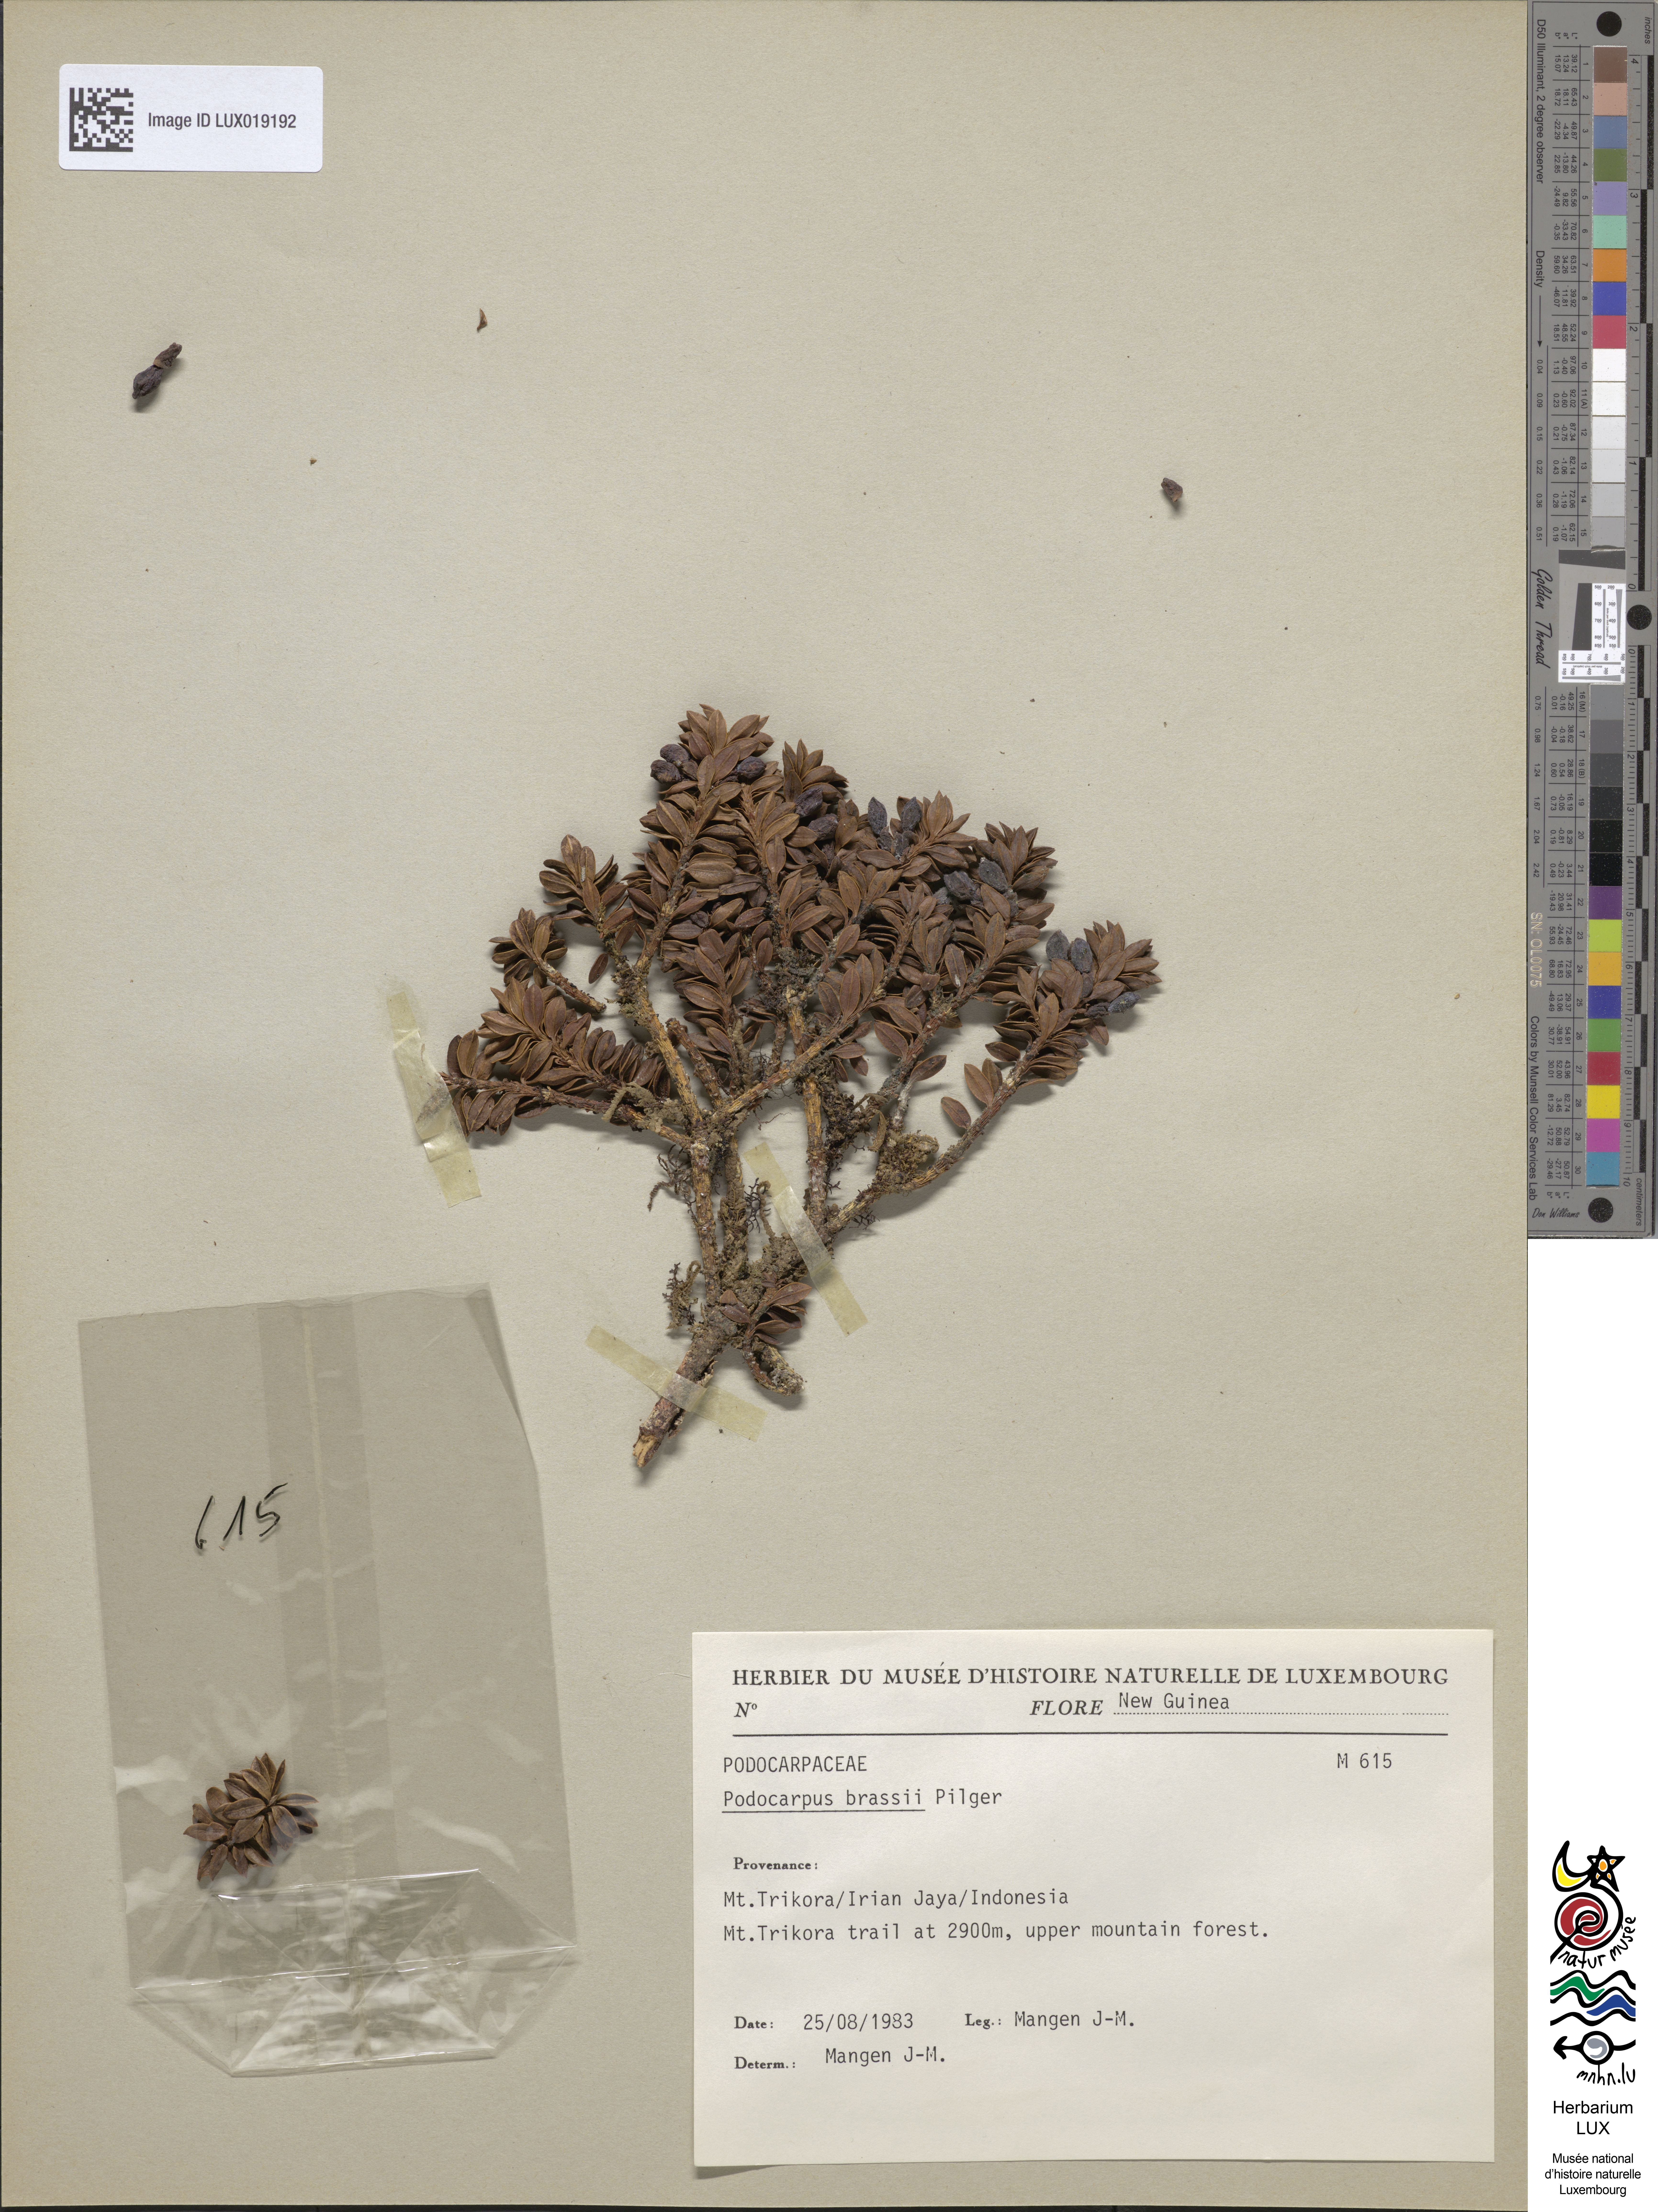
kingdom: Plantae
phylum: Tracheophyta
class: Pinopsida
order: Pinales
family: Podocarpaceae
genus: Podocarpus
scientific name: Podocarpus brassii
